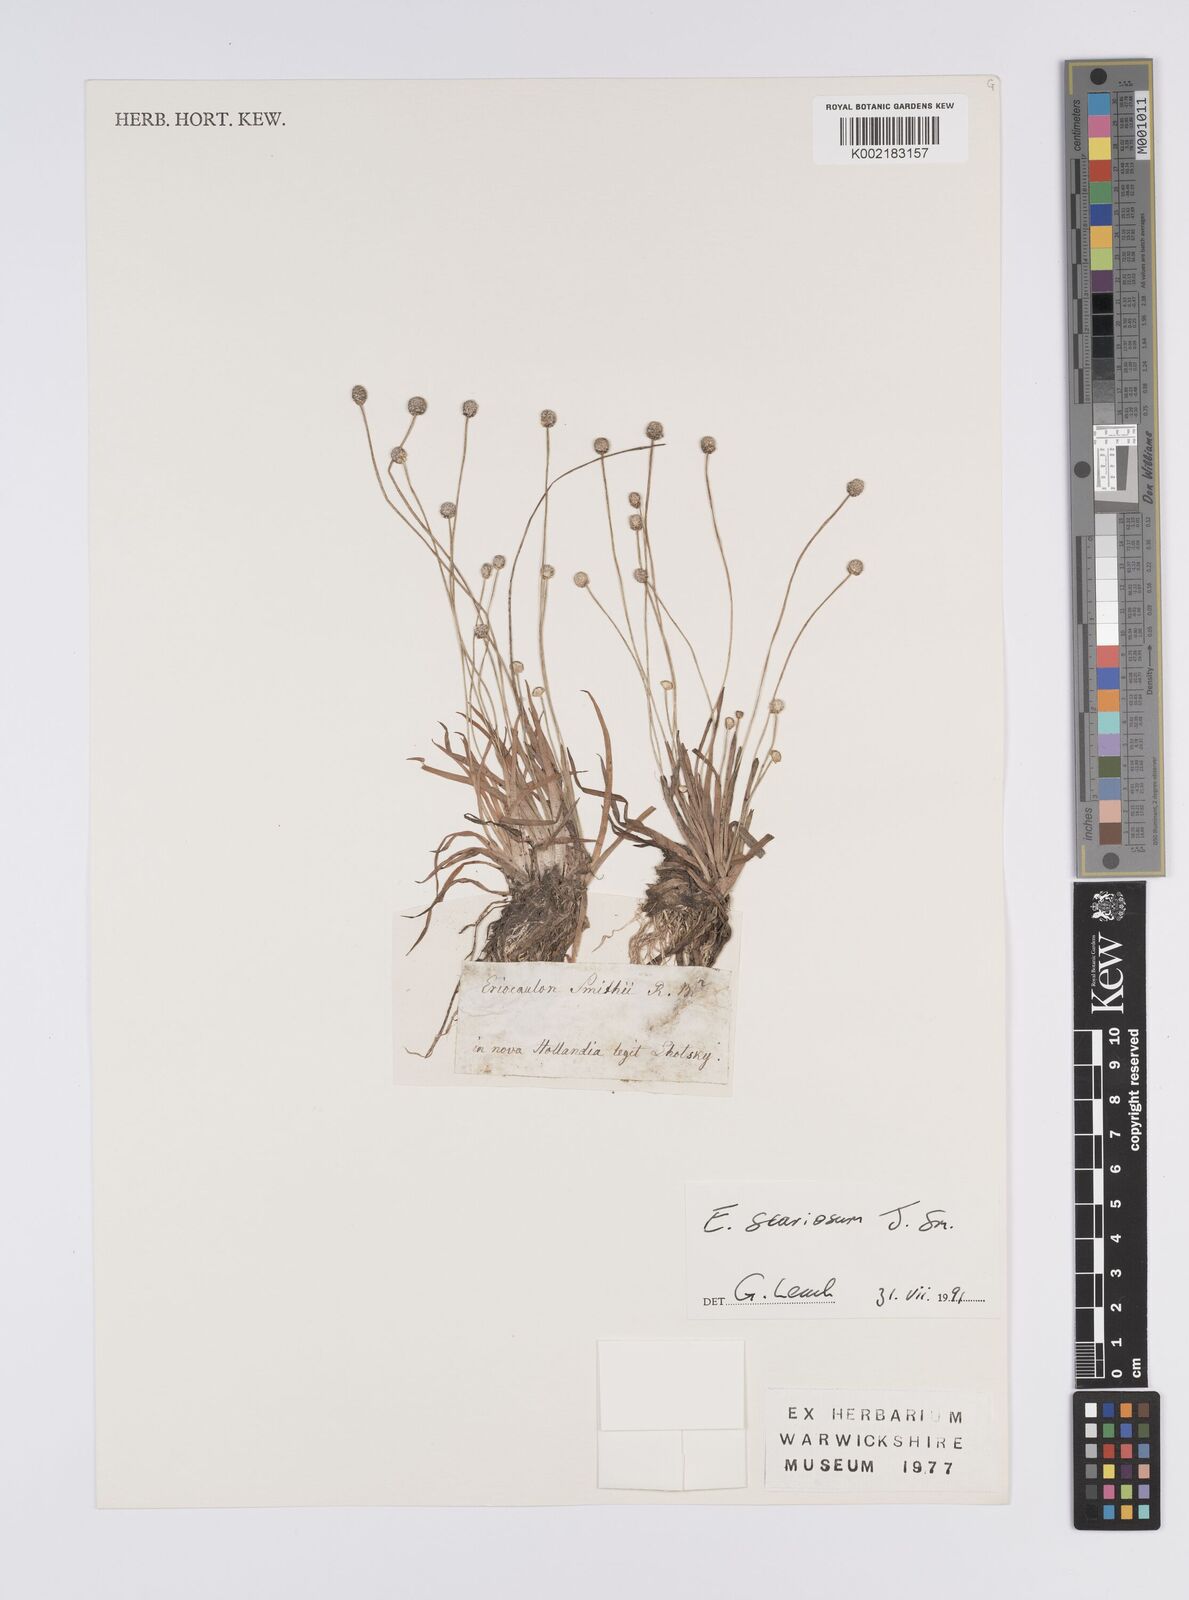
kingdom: Plantae
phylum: Tracheophyta
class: Liliopsida
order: Poales
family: Eriocaulaceae
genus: Eriocaulon
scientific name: Eriocaulon scariosum
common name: Rough pipewort
